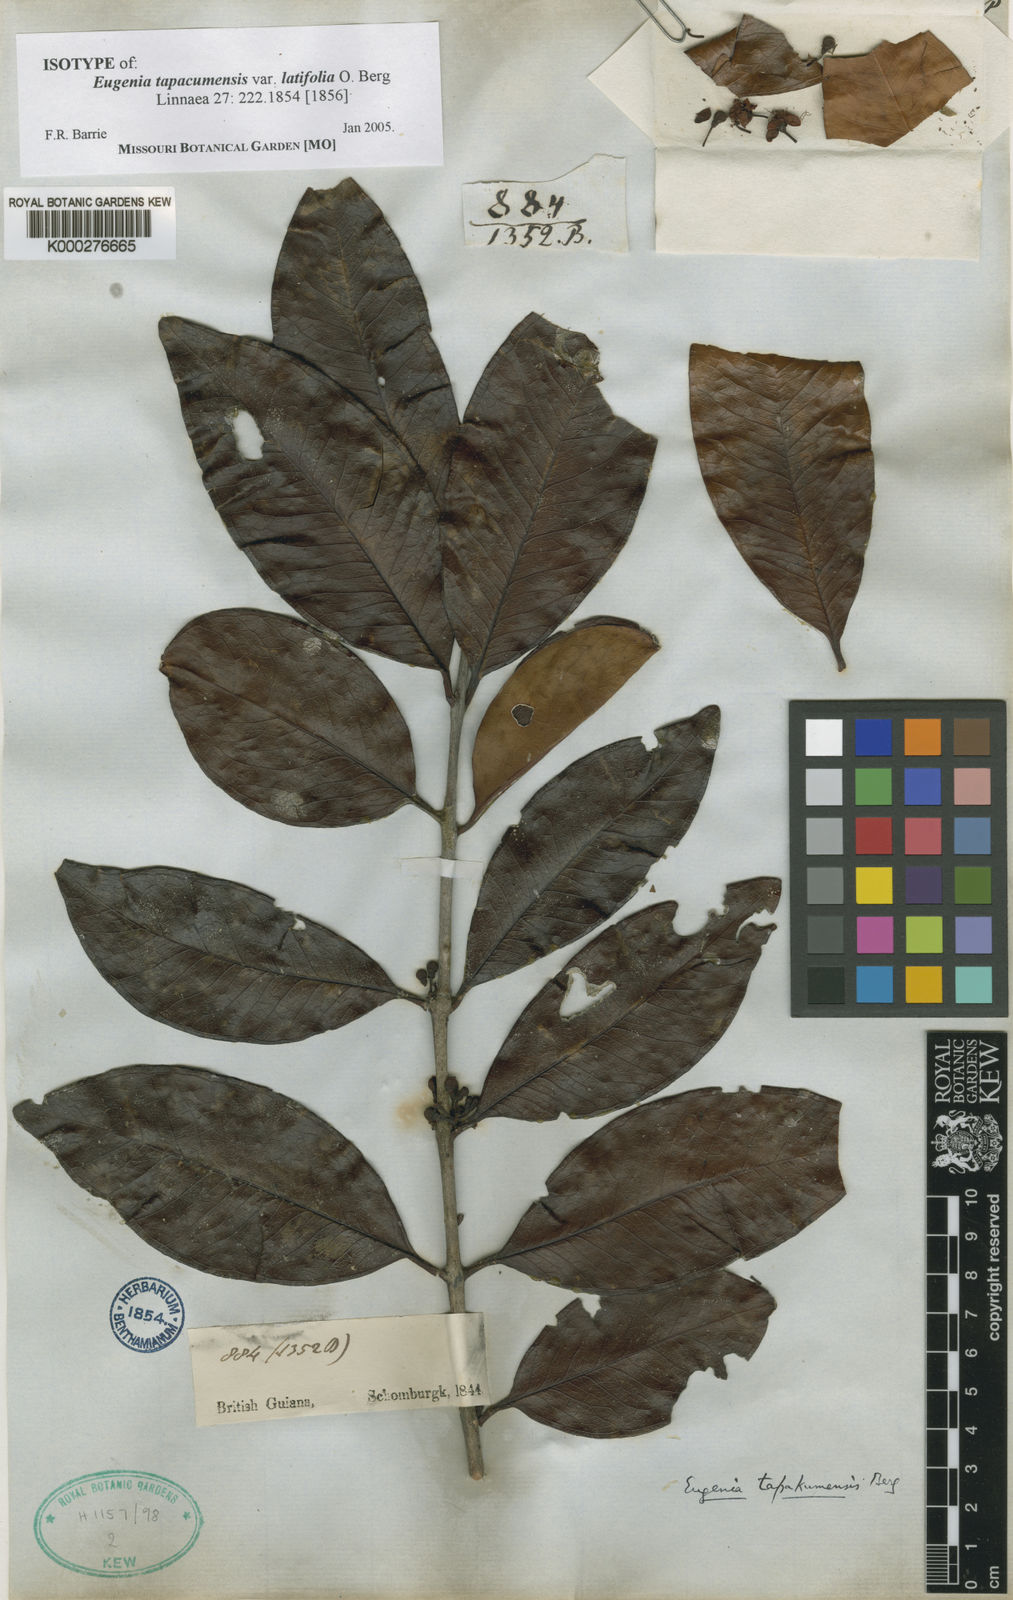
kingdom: Plantae
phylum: Tracheophyta
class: Magnoliopsida
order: Myrtales
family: Myrtaceae
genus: Eugenia
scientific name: Eugenia tapacumensis
